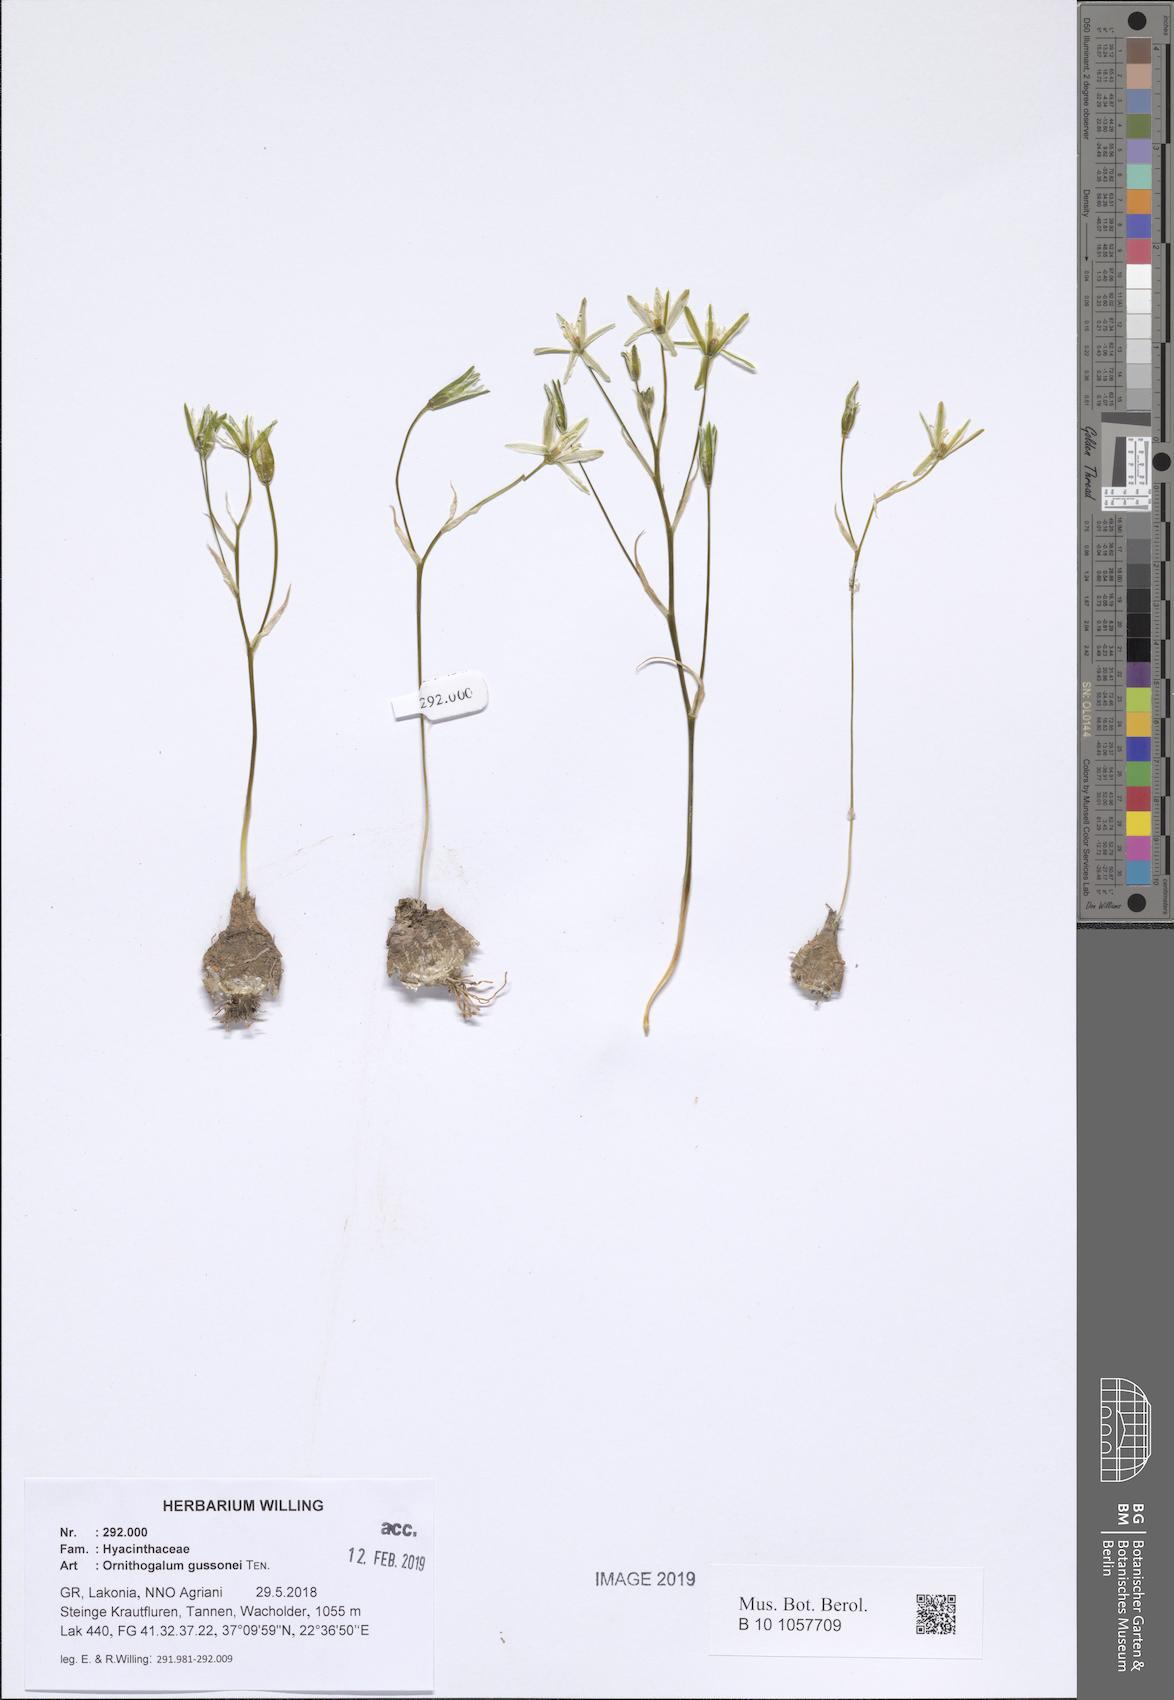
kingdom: Plantae
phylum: Tracheophyta
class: Liliopsida
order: Asparagales
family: Asparagaceae
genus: Ornithogalum
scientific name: Ornithogalum gussonei
